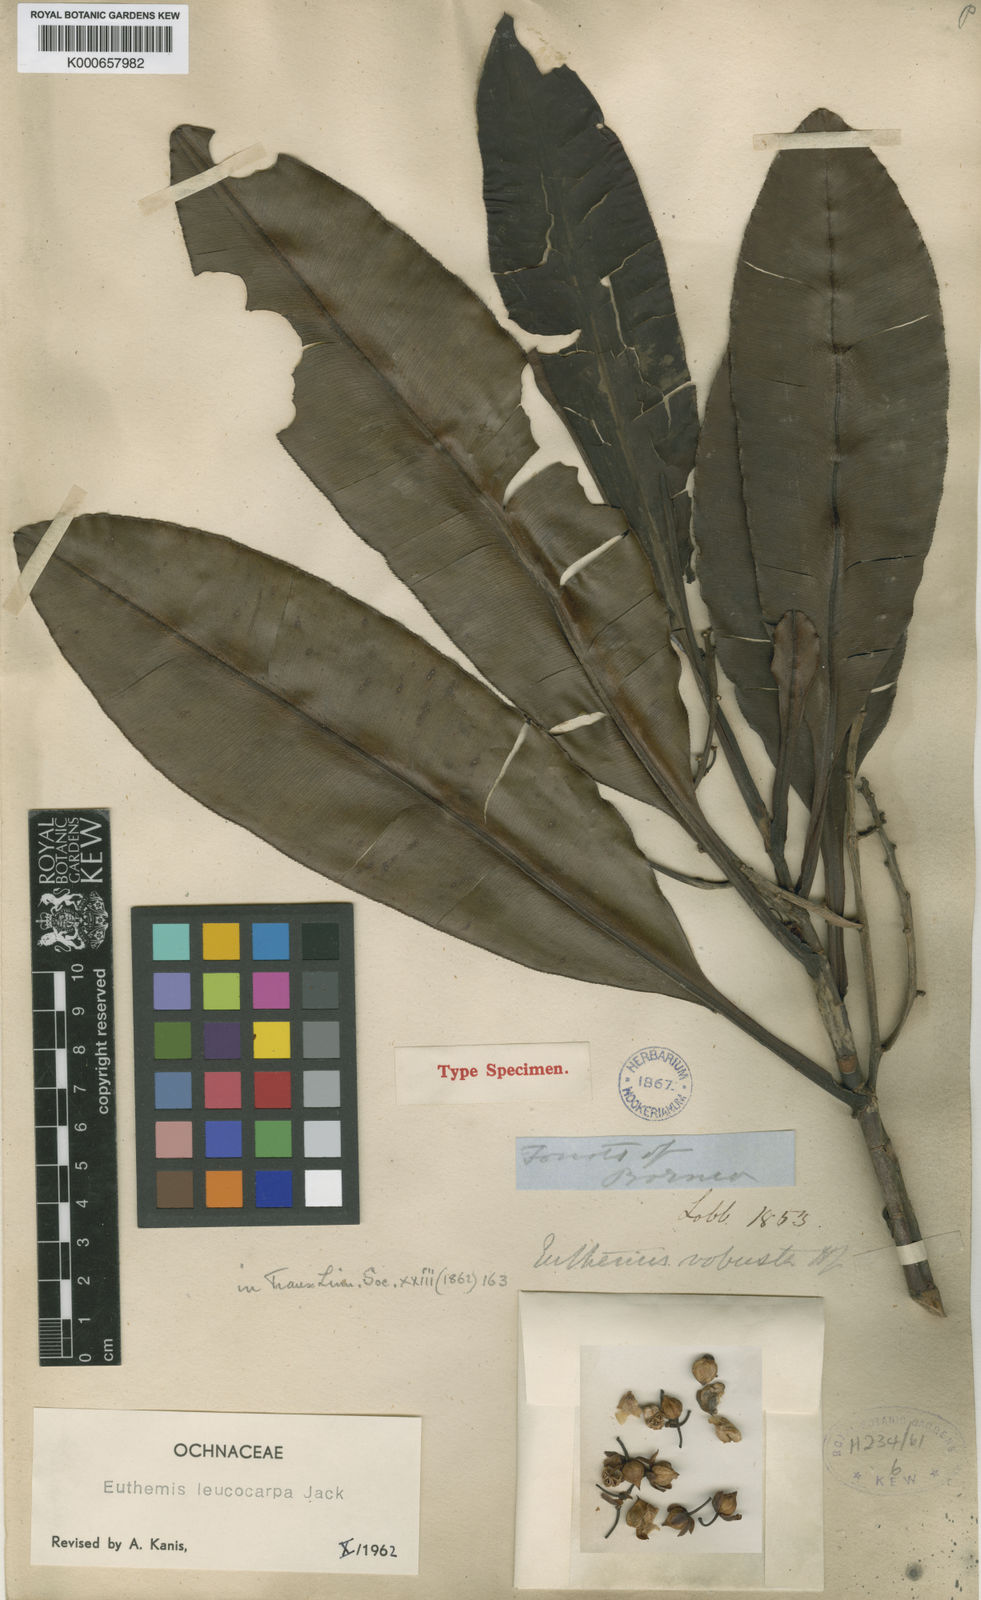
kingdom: Plantae
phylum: Tracheophyta
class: Magnoliopsida
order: Malpighiales
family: Ochnaceae
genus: Euthemis
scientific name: Euthemis leucocarpa
